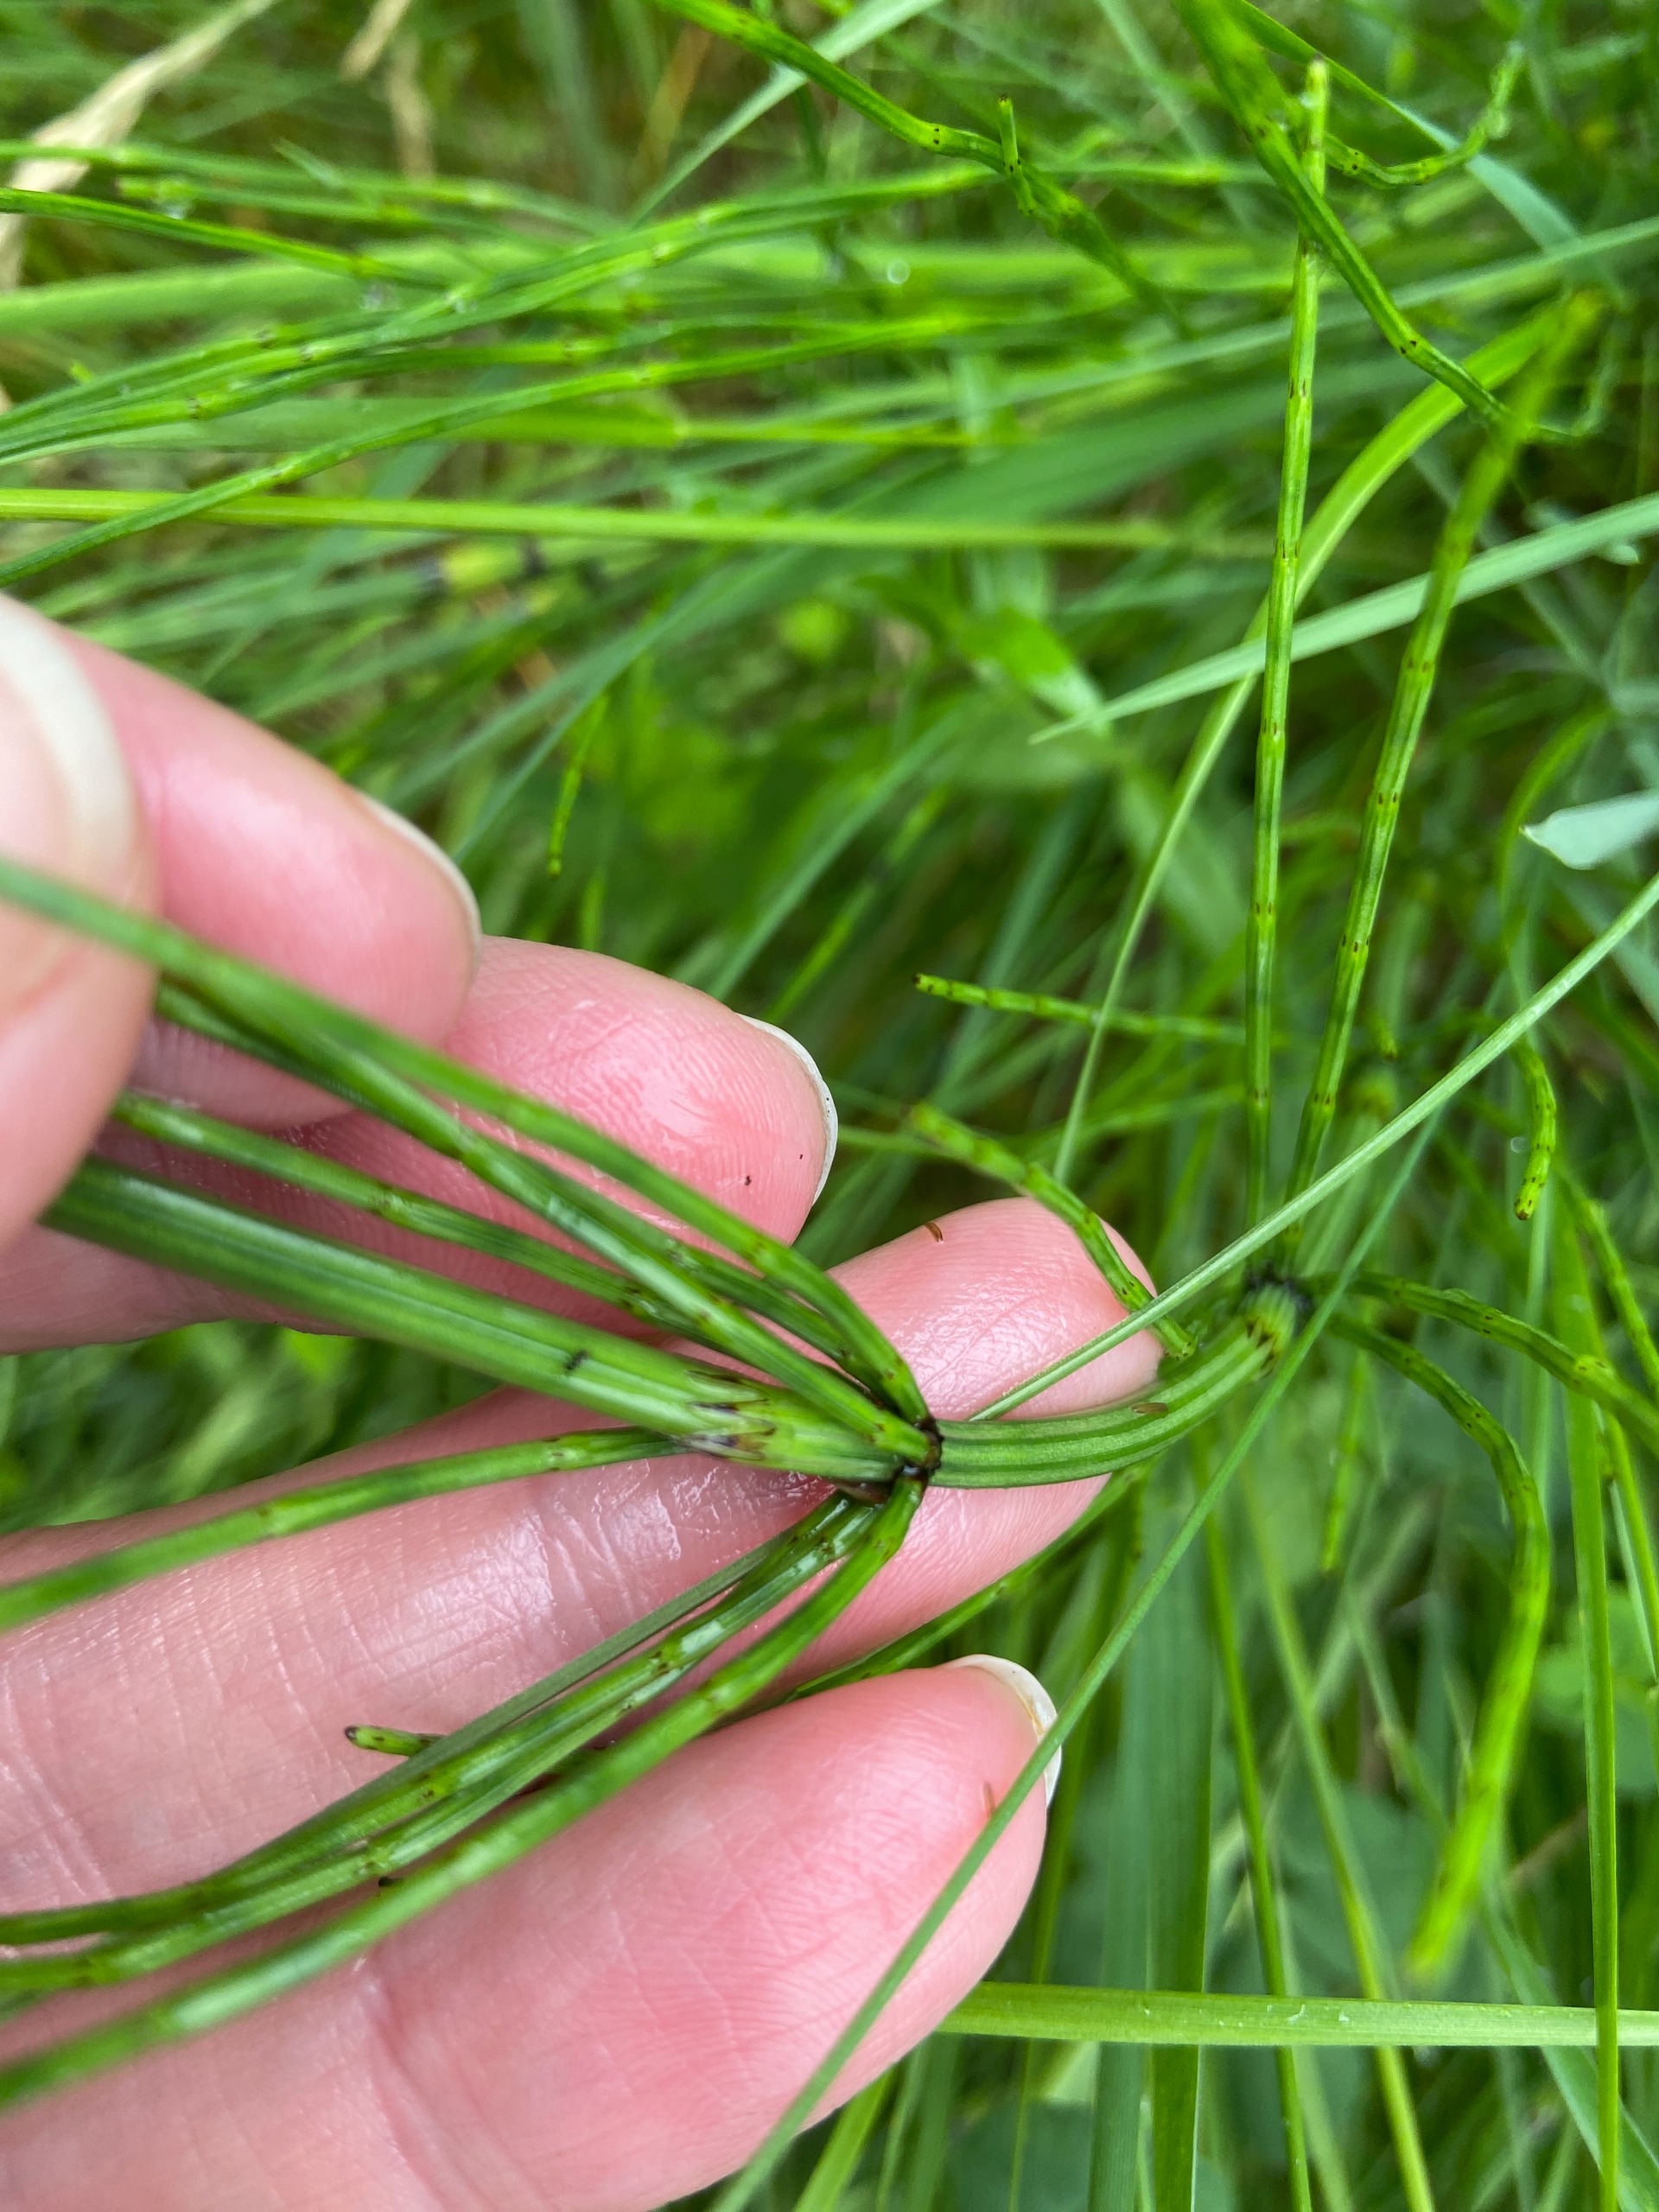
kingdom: Plantae
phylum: Tracheophyta
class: Polypodiopsida
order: Equisetales
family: Equisetaceae
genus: Equisetum
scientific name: Equisetum palustre
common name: Kær-padderok
